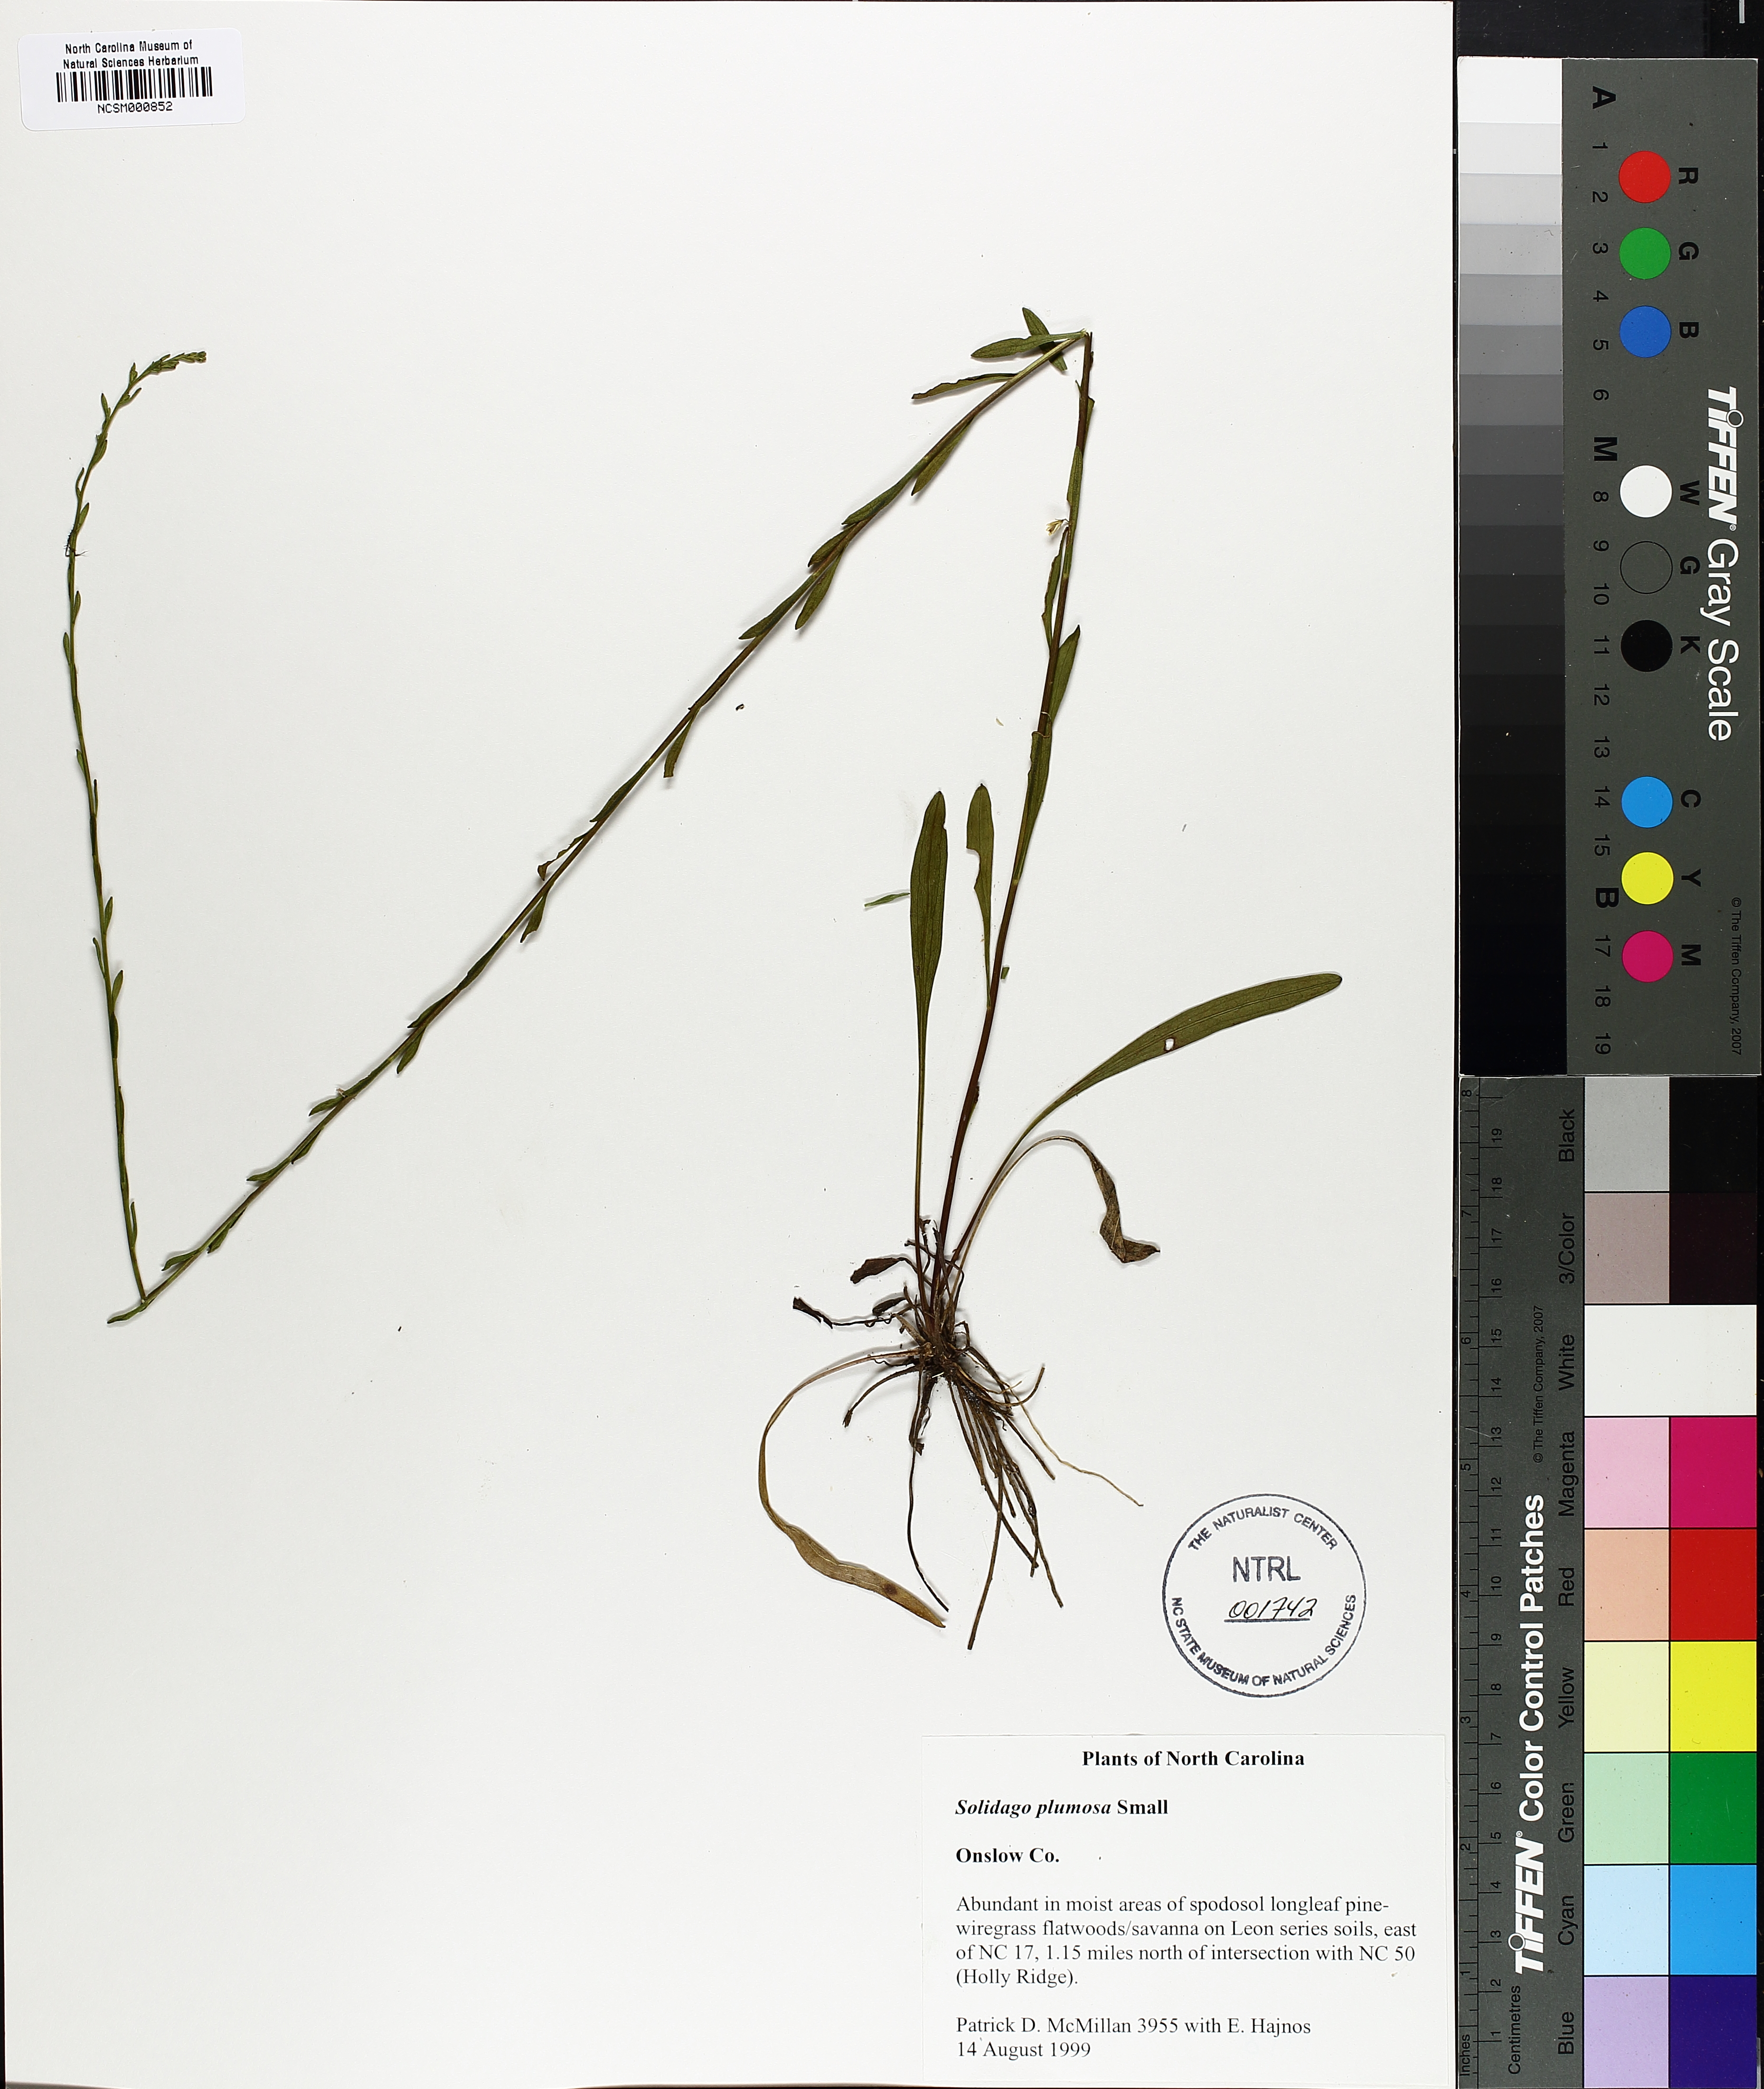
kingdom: Plantae
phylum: Tracheophyta
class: Magnoliopsida
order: Asterales
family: Asteraceae
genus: Solidago
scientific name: Solidago plumosa
